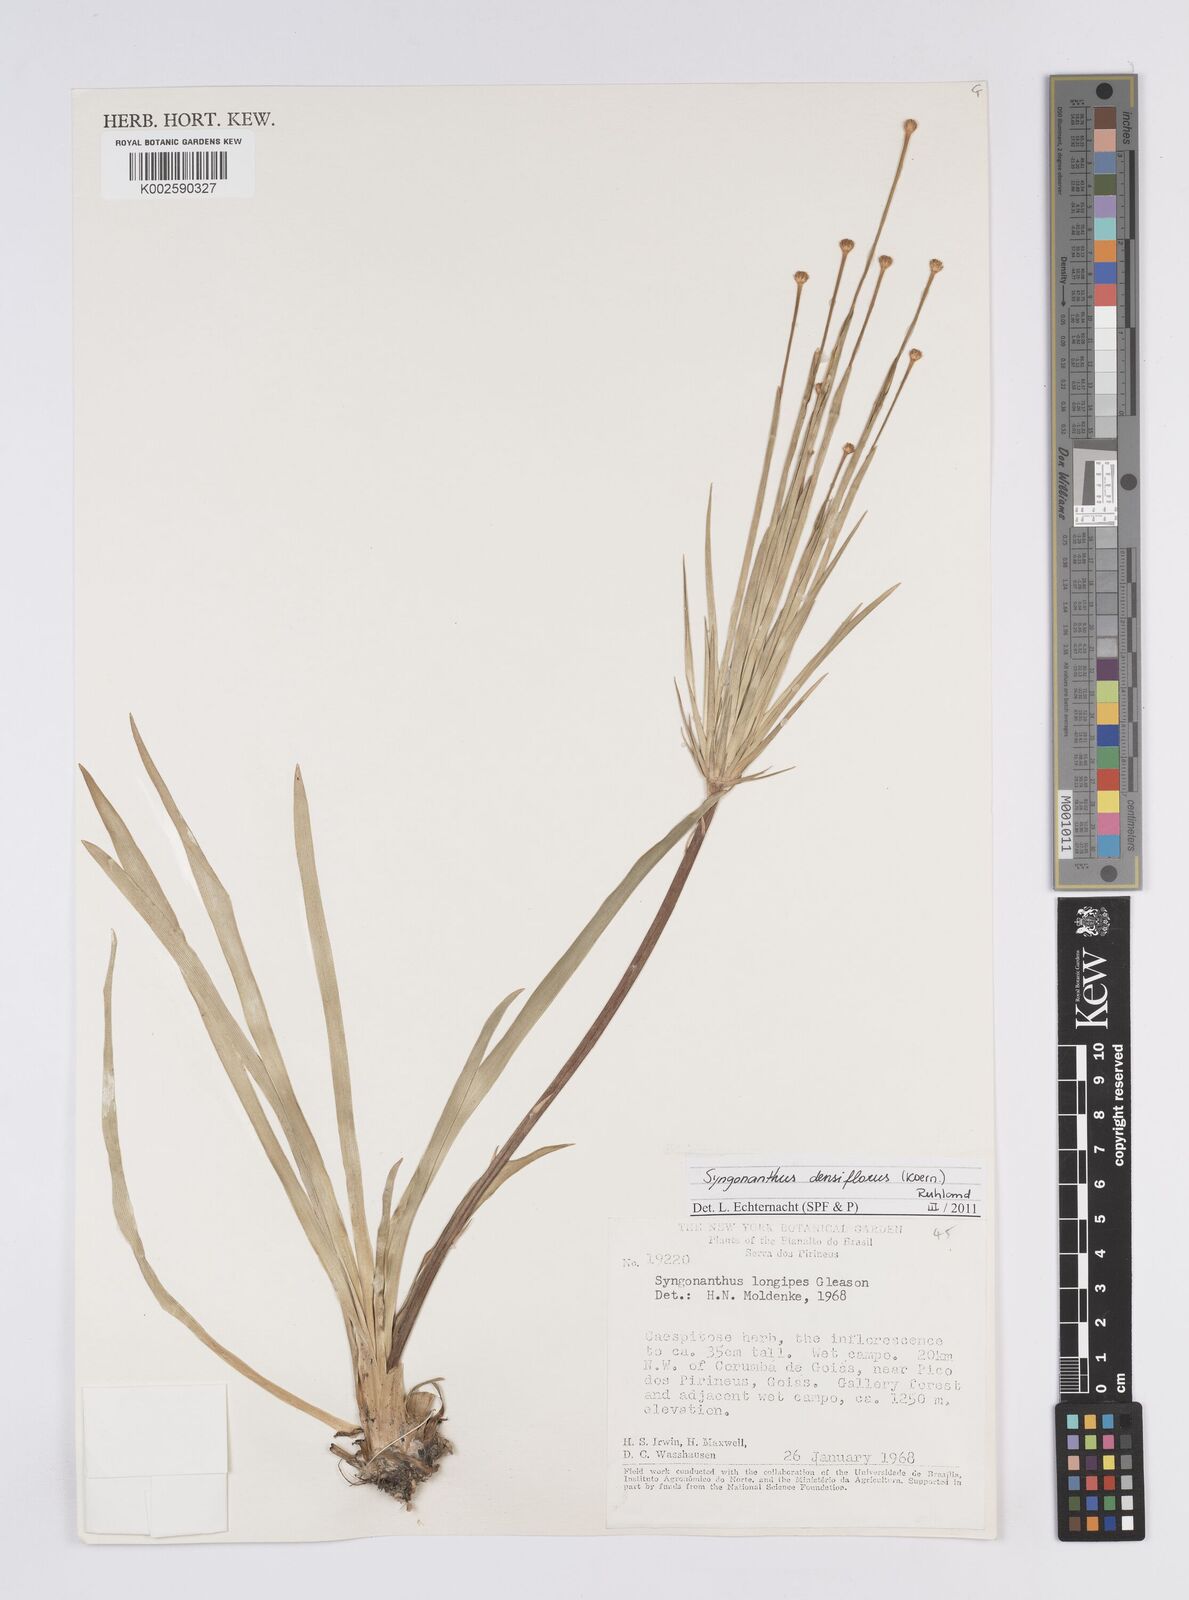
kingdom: Plantae
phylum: Tracheophyta
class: Liliopsida
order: Poales
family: Eriocaulaceae
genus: Syngonanthus
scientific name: Syngonanthus densiflorus
